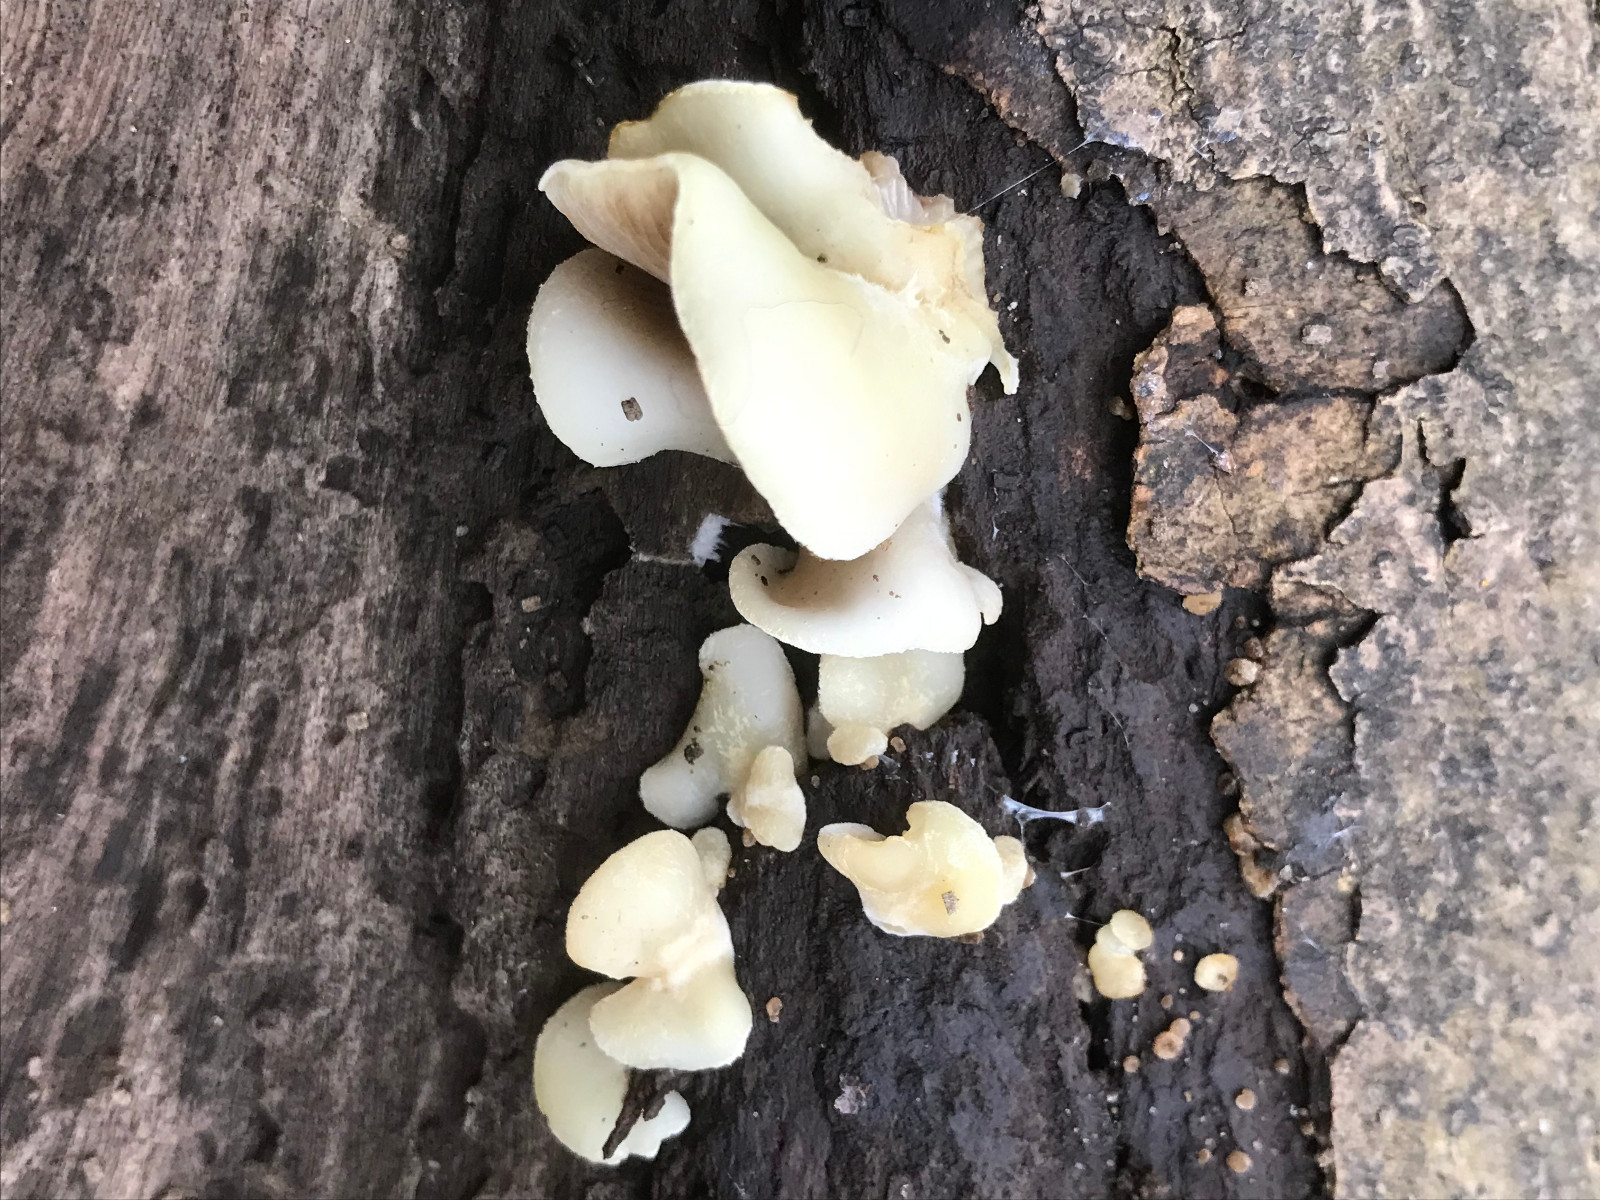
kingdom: Fungi
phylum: Basidiomycota
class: Agaricomycetes
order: Agaricales
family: Crepidotaceae
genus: Crepidotus
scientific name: Crepidotus
